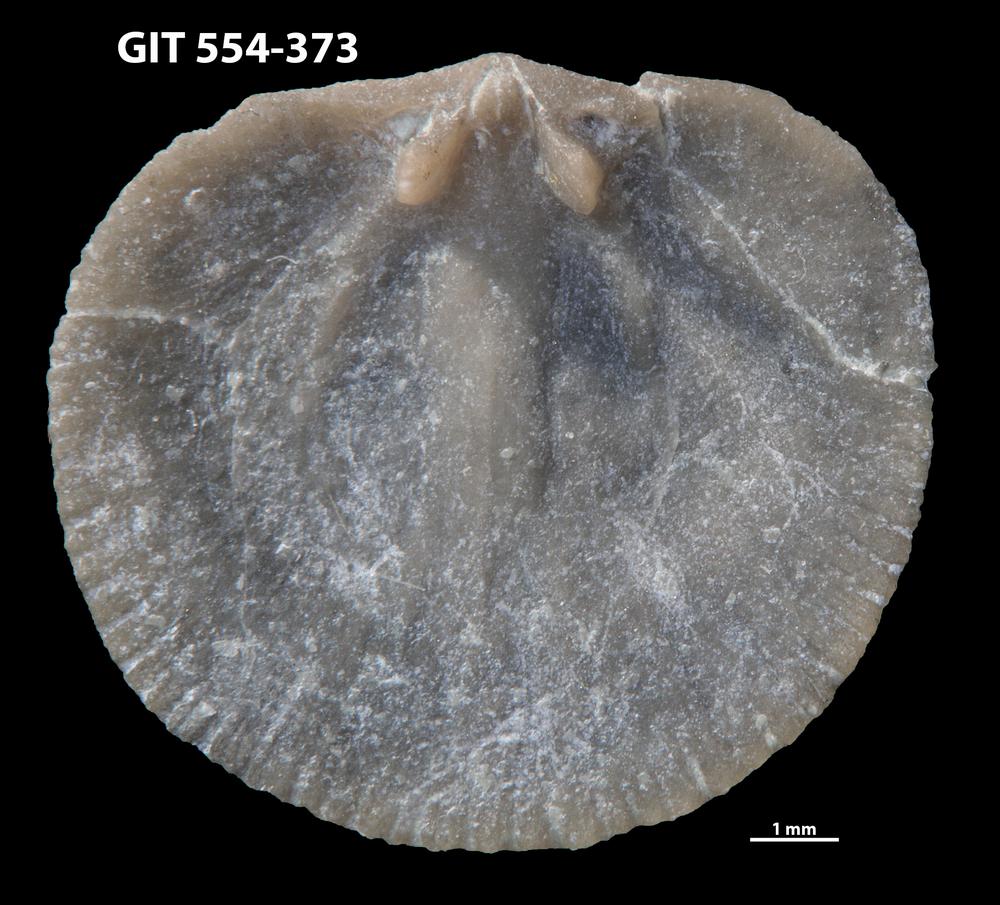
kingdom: Animalia
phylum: Brachiopoda
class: Rhynchonellata
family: Dalmanellidae
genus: Onniella
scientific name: Onniella trigona
